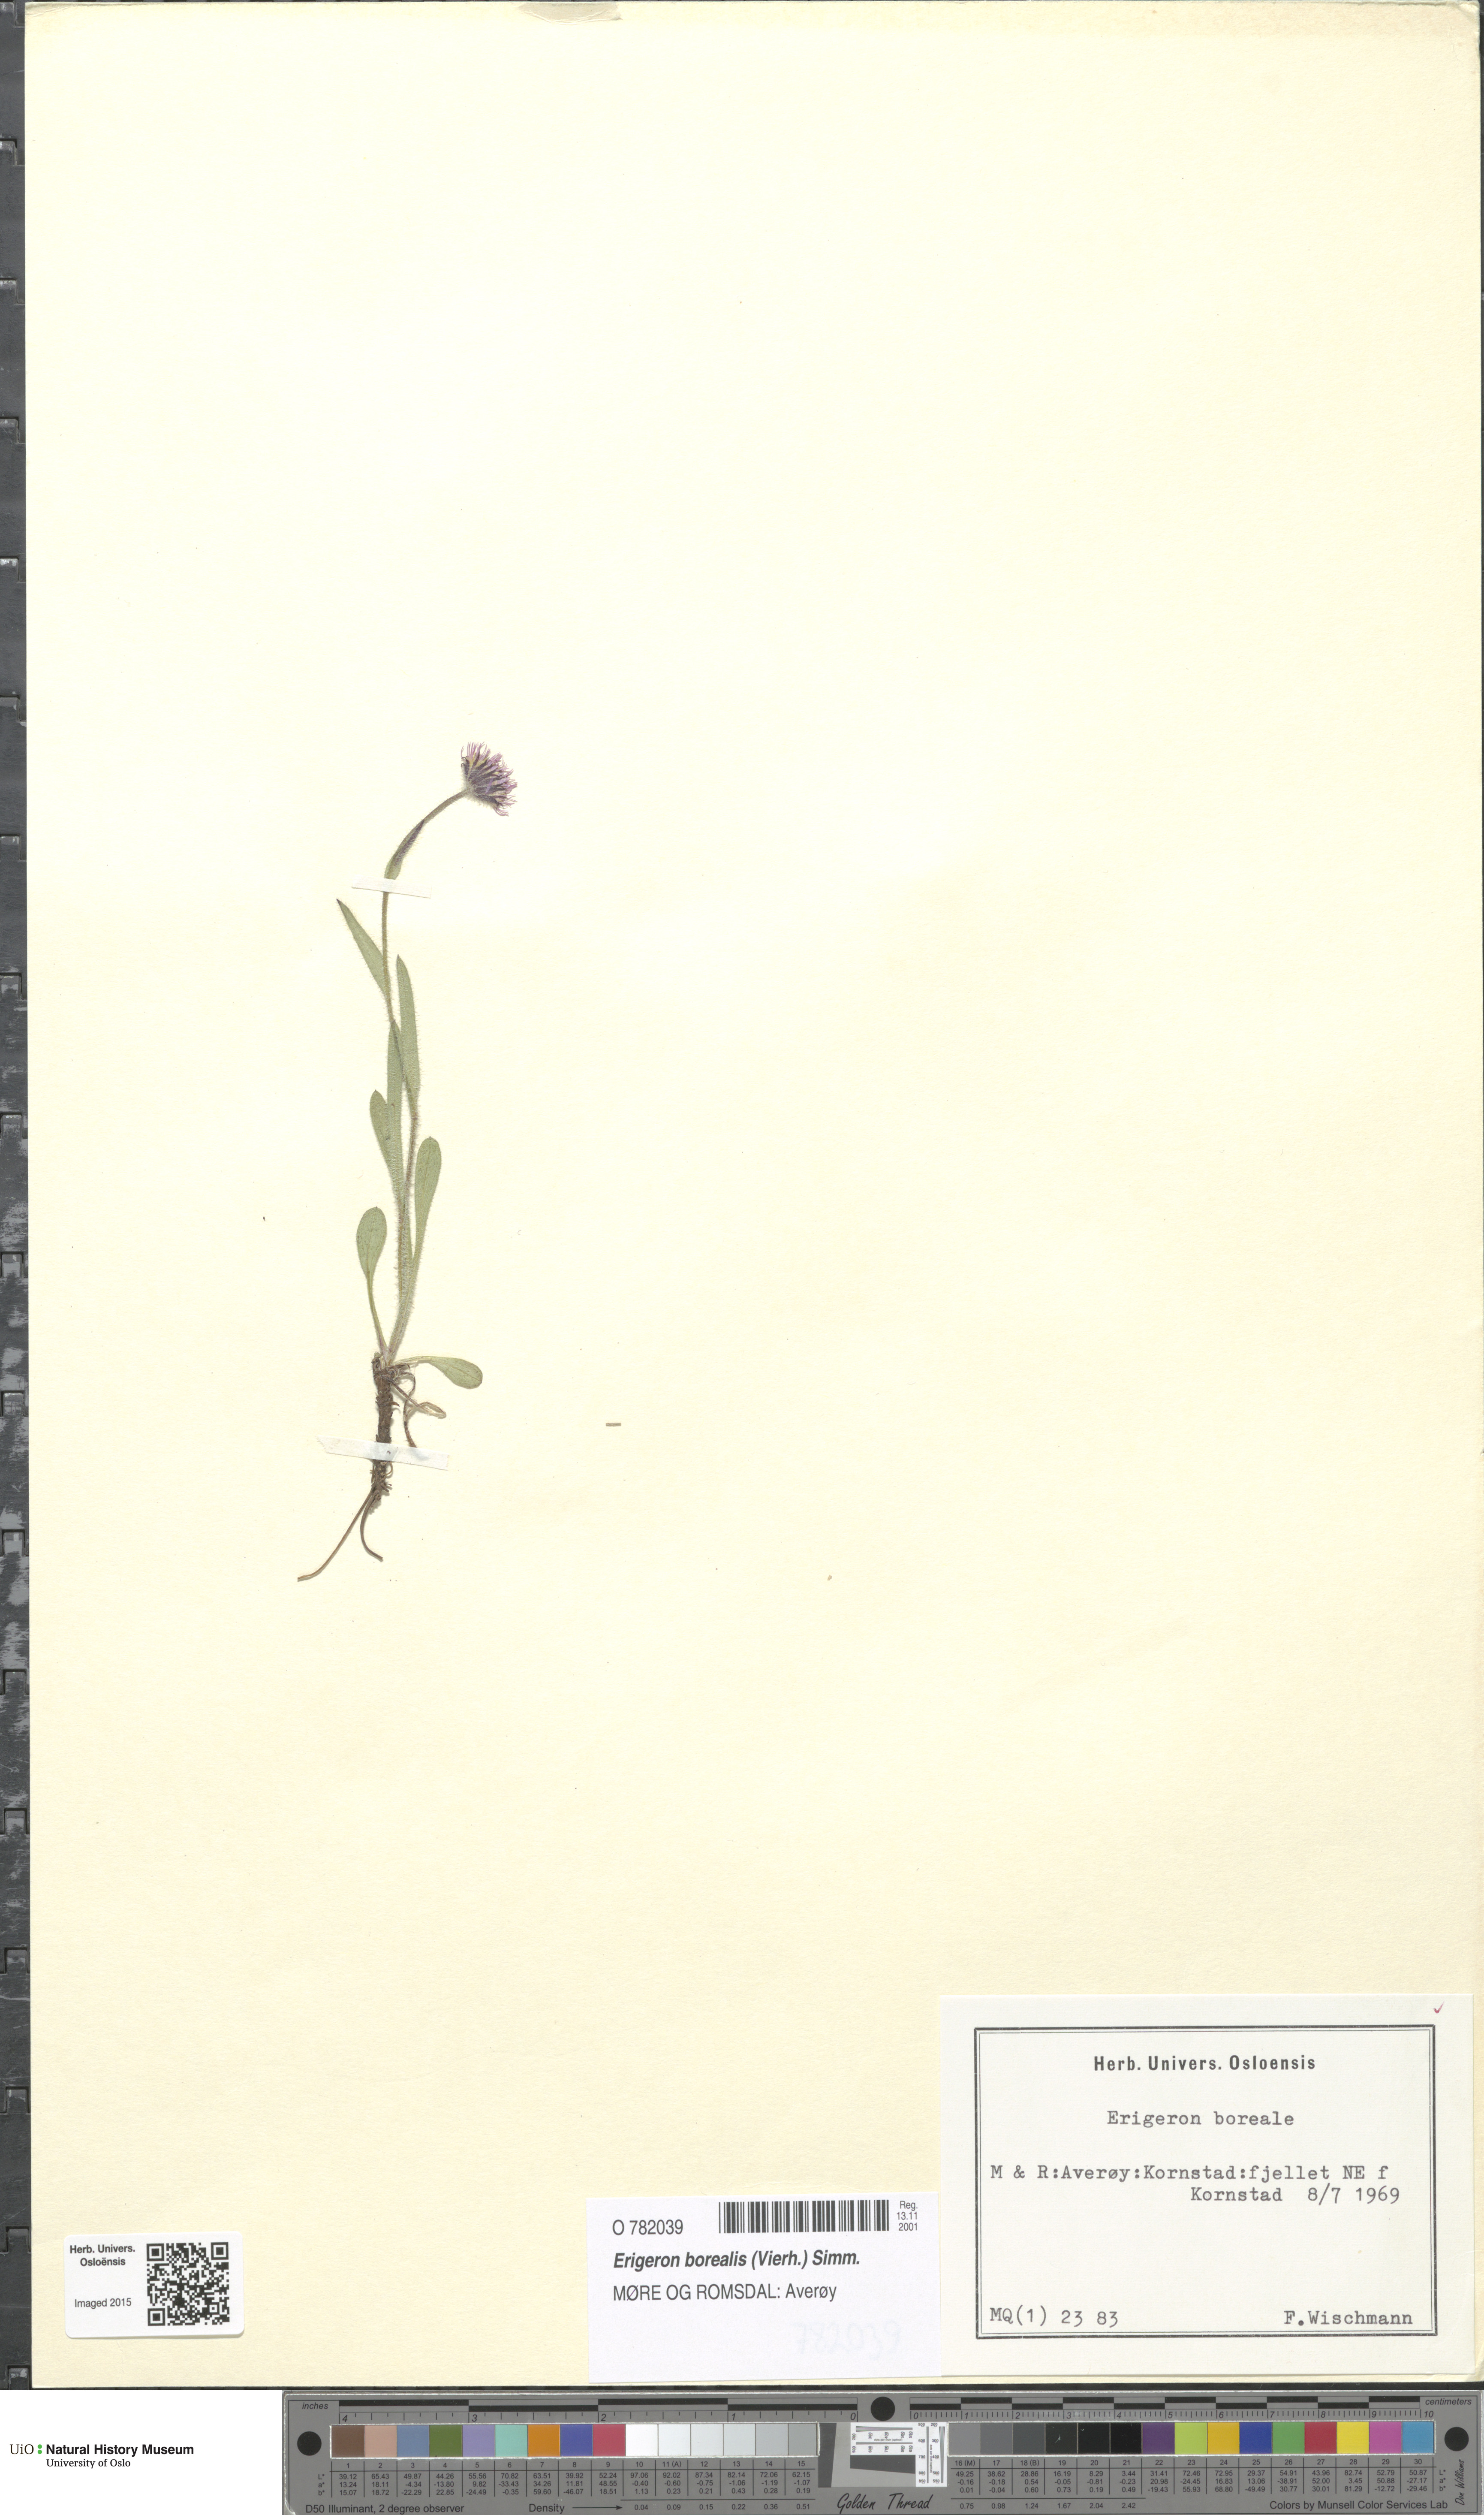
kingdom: Plantae
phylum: Tracheophyta
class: Magnoliopsida
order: Asterales
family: Asteraceae
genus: Erigeron
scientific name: Erigeron borealis
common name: Alpine fleabane
